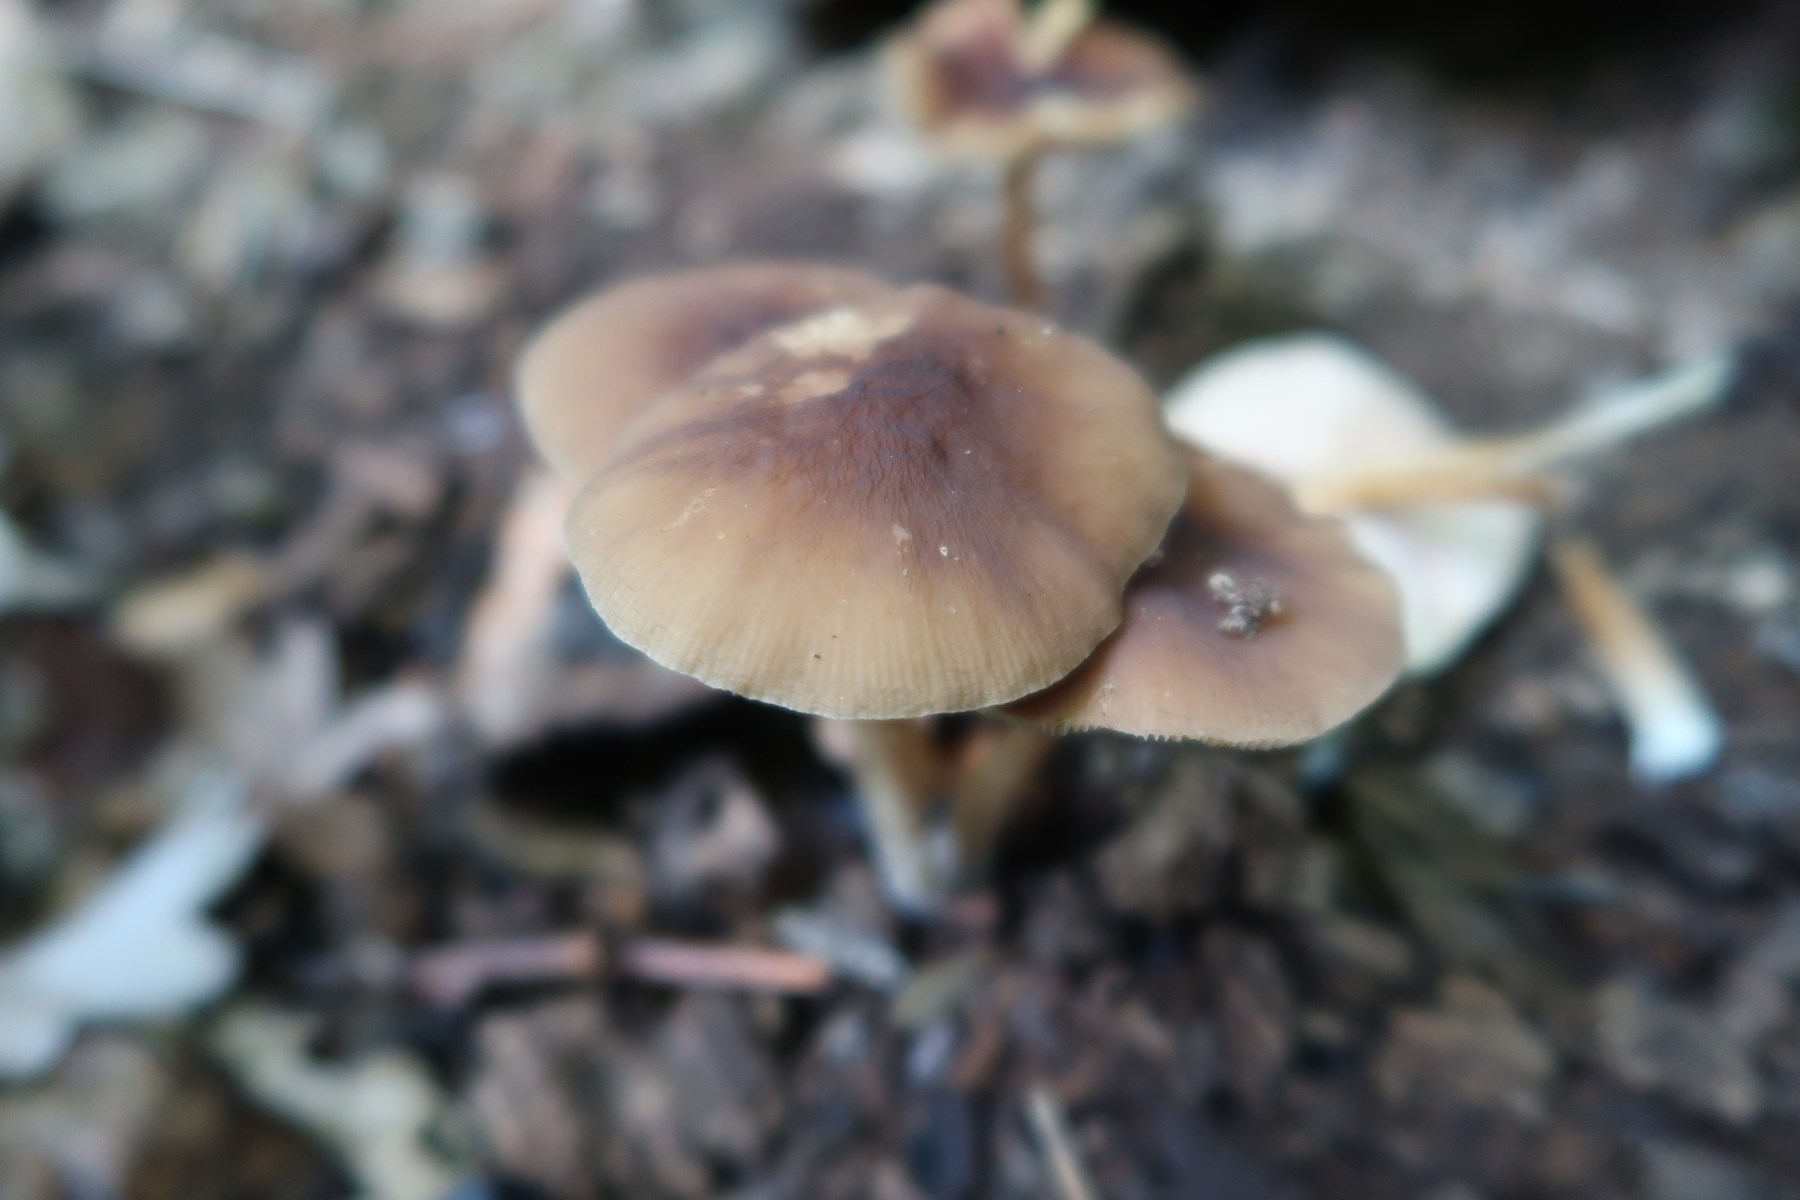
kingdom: Fungi
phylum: Basidiomycota
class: Agaricomycetes
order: Agaricales
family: Pluteaceae
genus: Pluteus
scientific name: Pluteus phlebophorus
